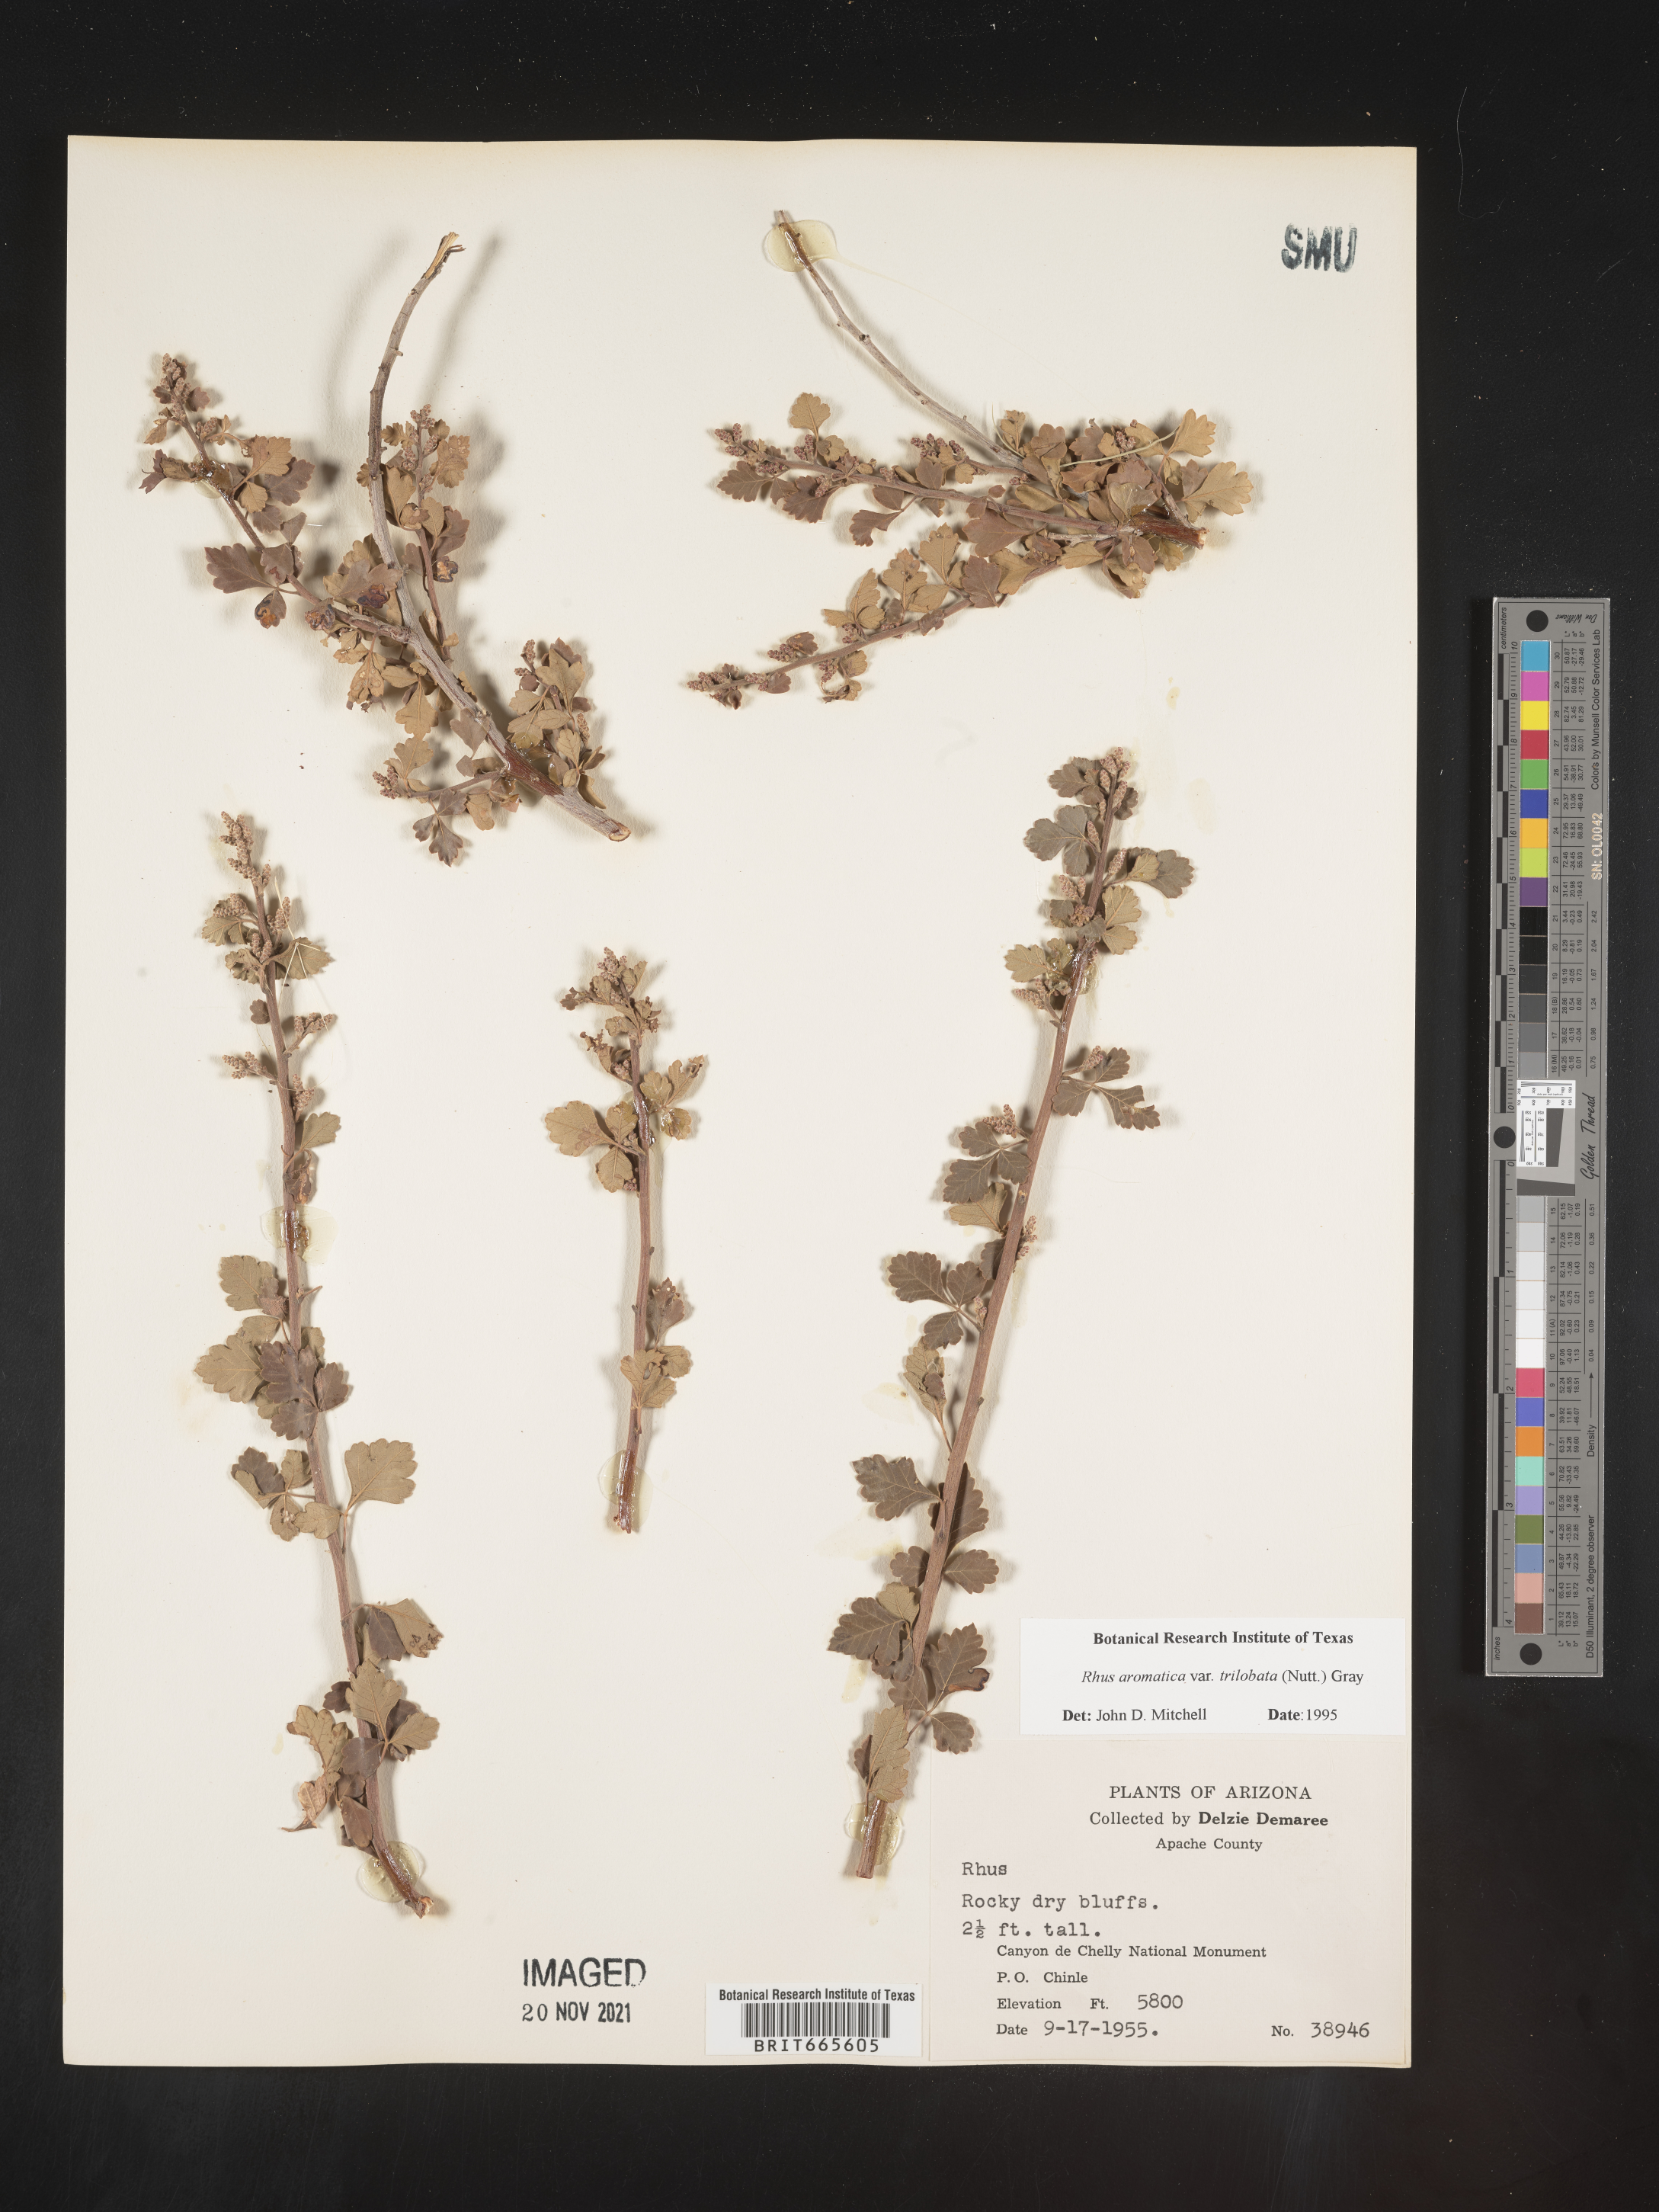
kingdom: Plantae
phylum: Tracheophyta
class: Magnoliopsida
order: Sapindales
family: Anacardiaceae
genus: Rhus
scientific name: Rhus aromatica
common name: Aromatic sumac
